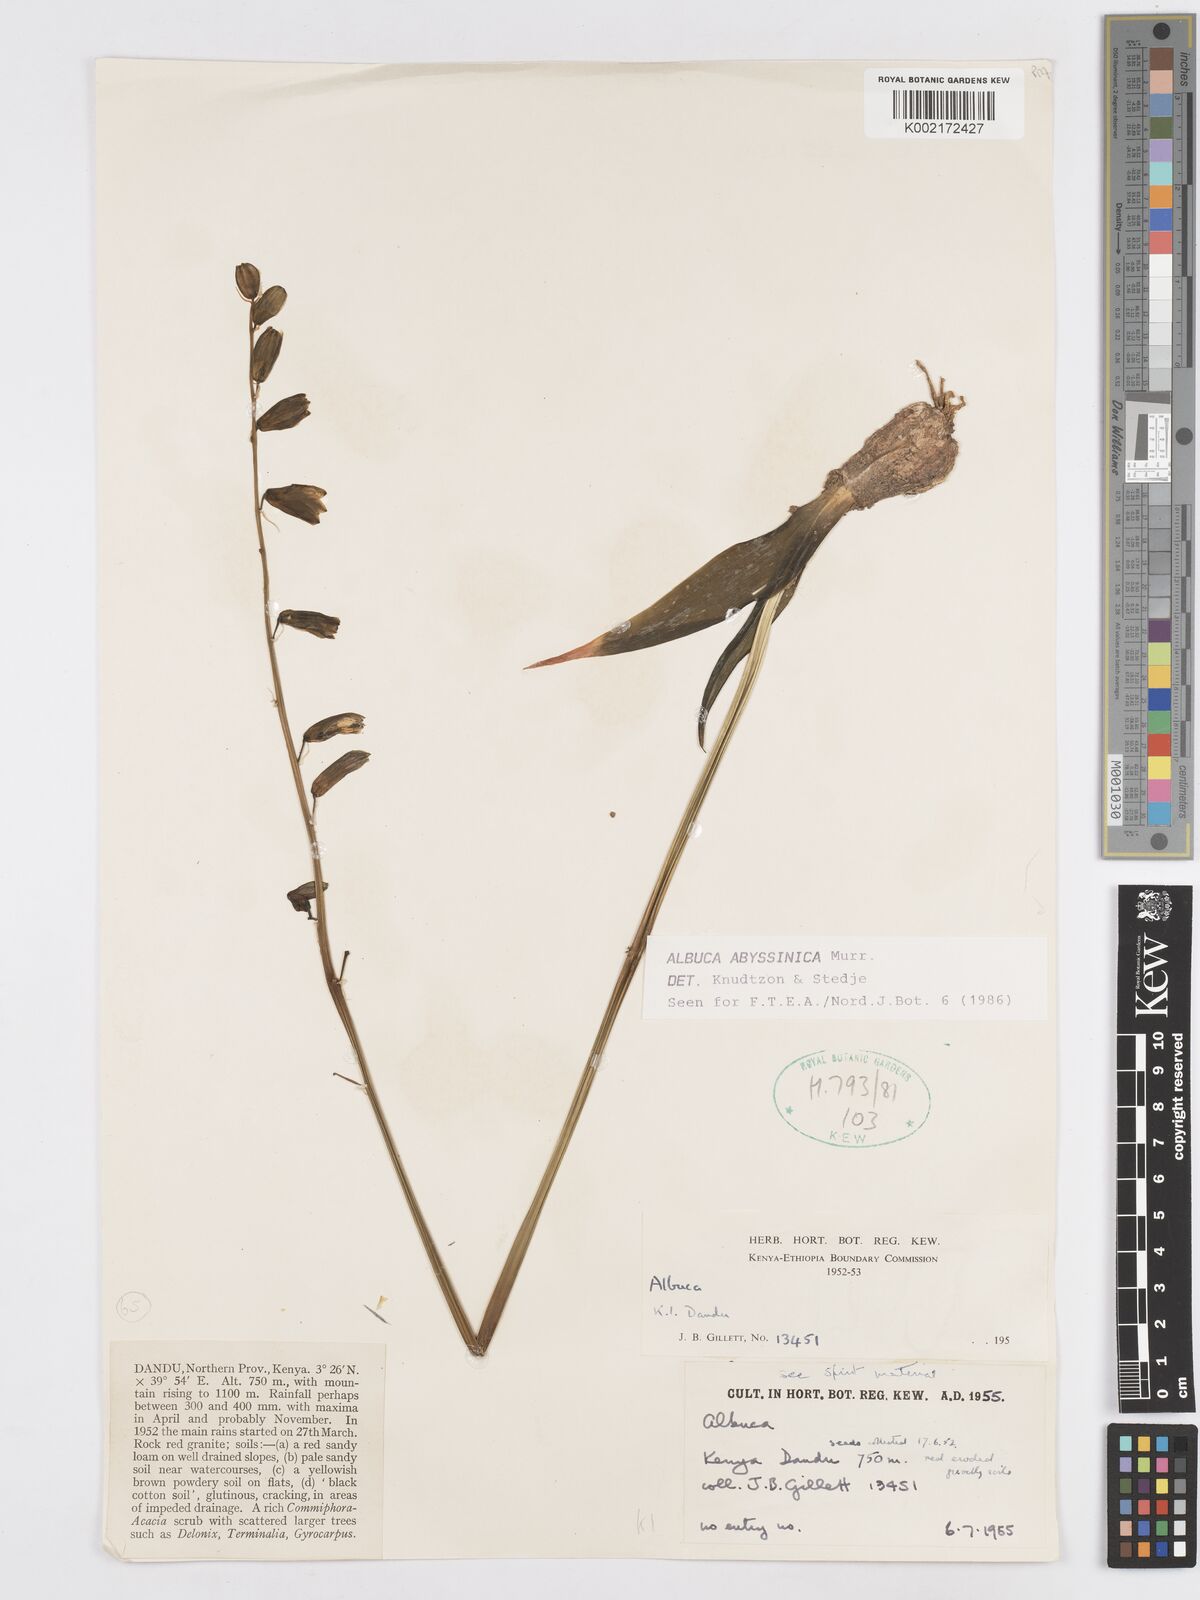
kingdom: Plantae
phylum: Tracheophyta
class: Liliopsida
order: Asparagales
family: Asparagaceae
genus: Albuca
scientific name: Albuca abyssinica
